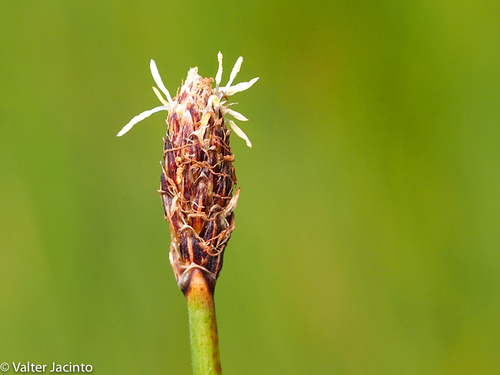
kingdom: Plantae
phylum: Tracheophyta
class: Liliopsida
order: Poales
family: Cyperaceae
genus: Eleocharis
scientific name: Eleocharis palustris
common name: Common spike-rush
